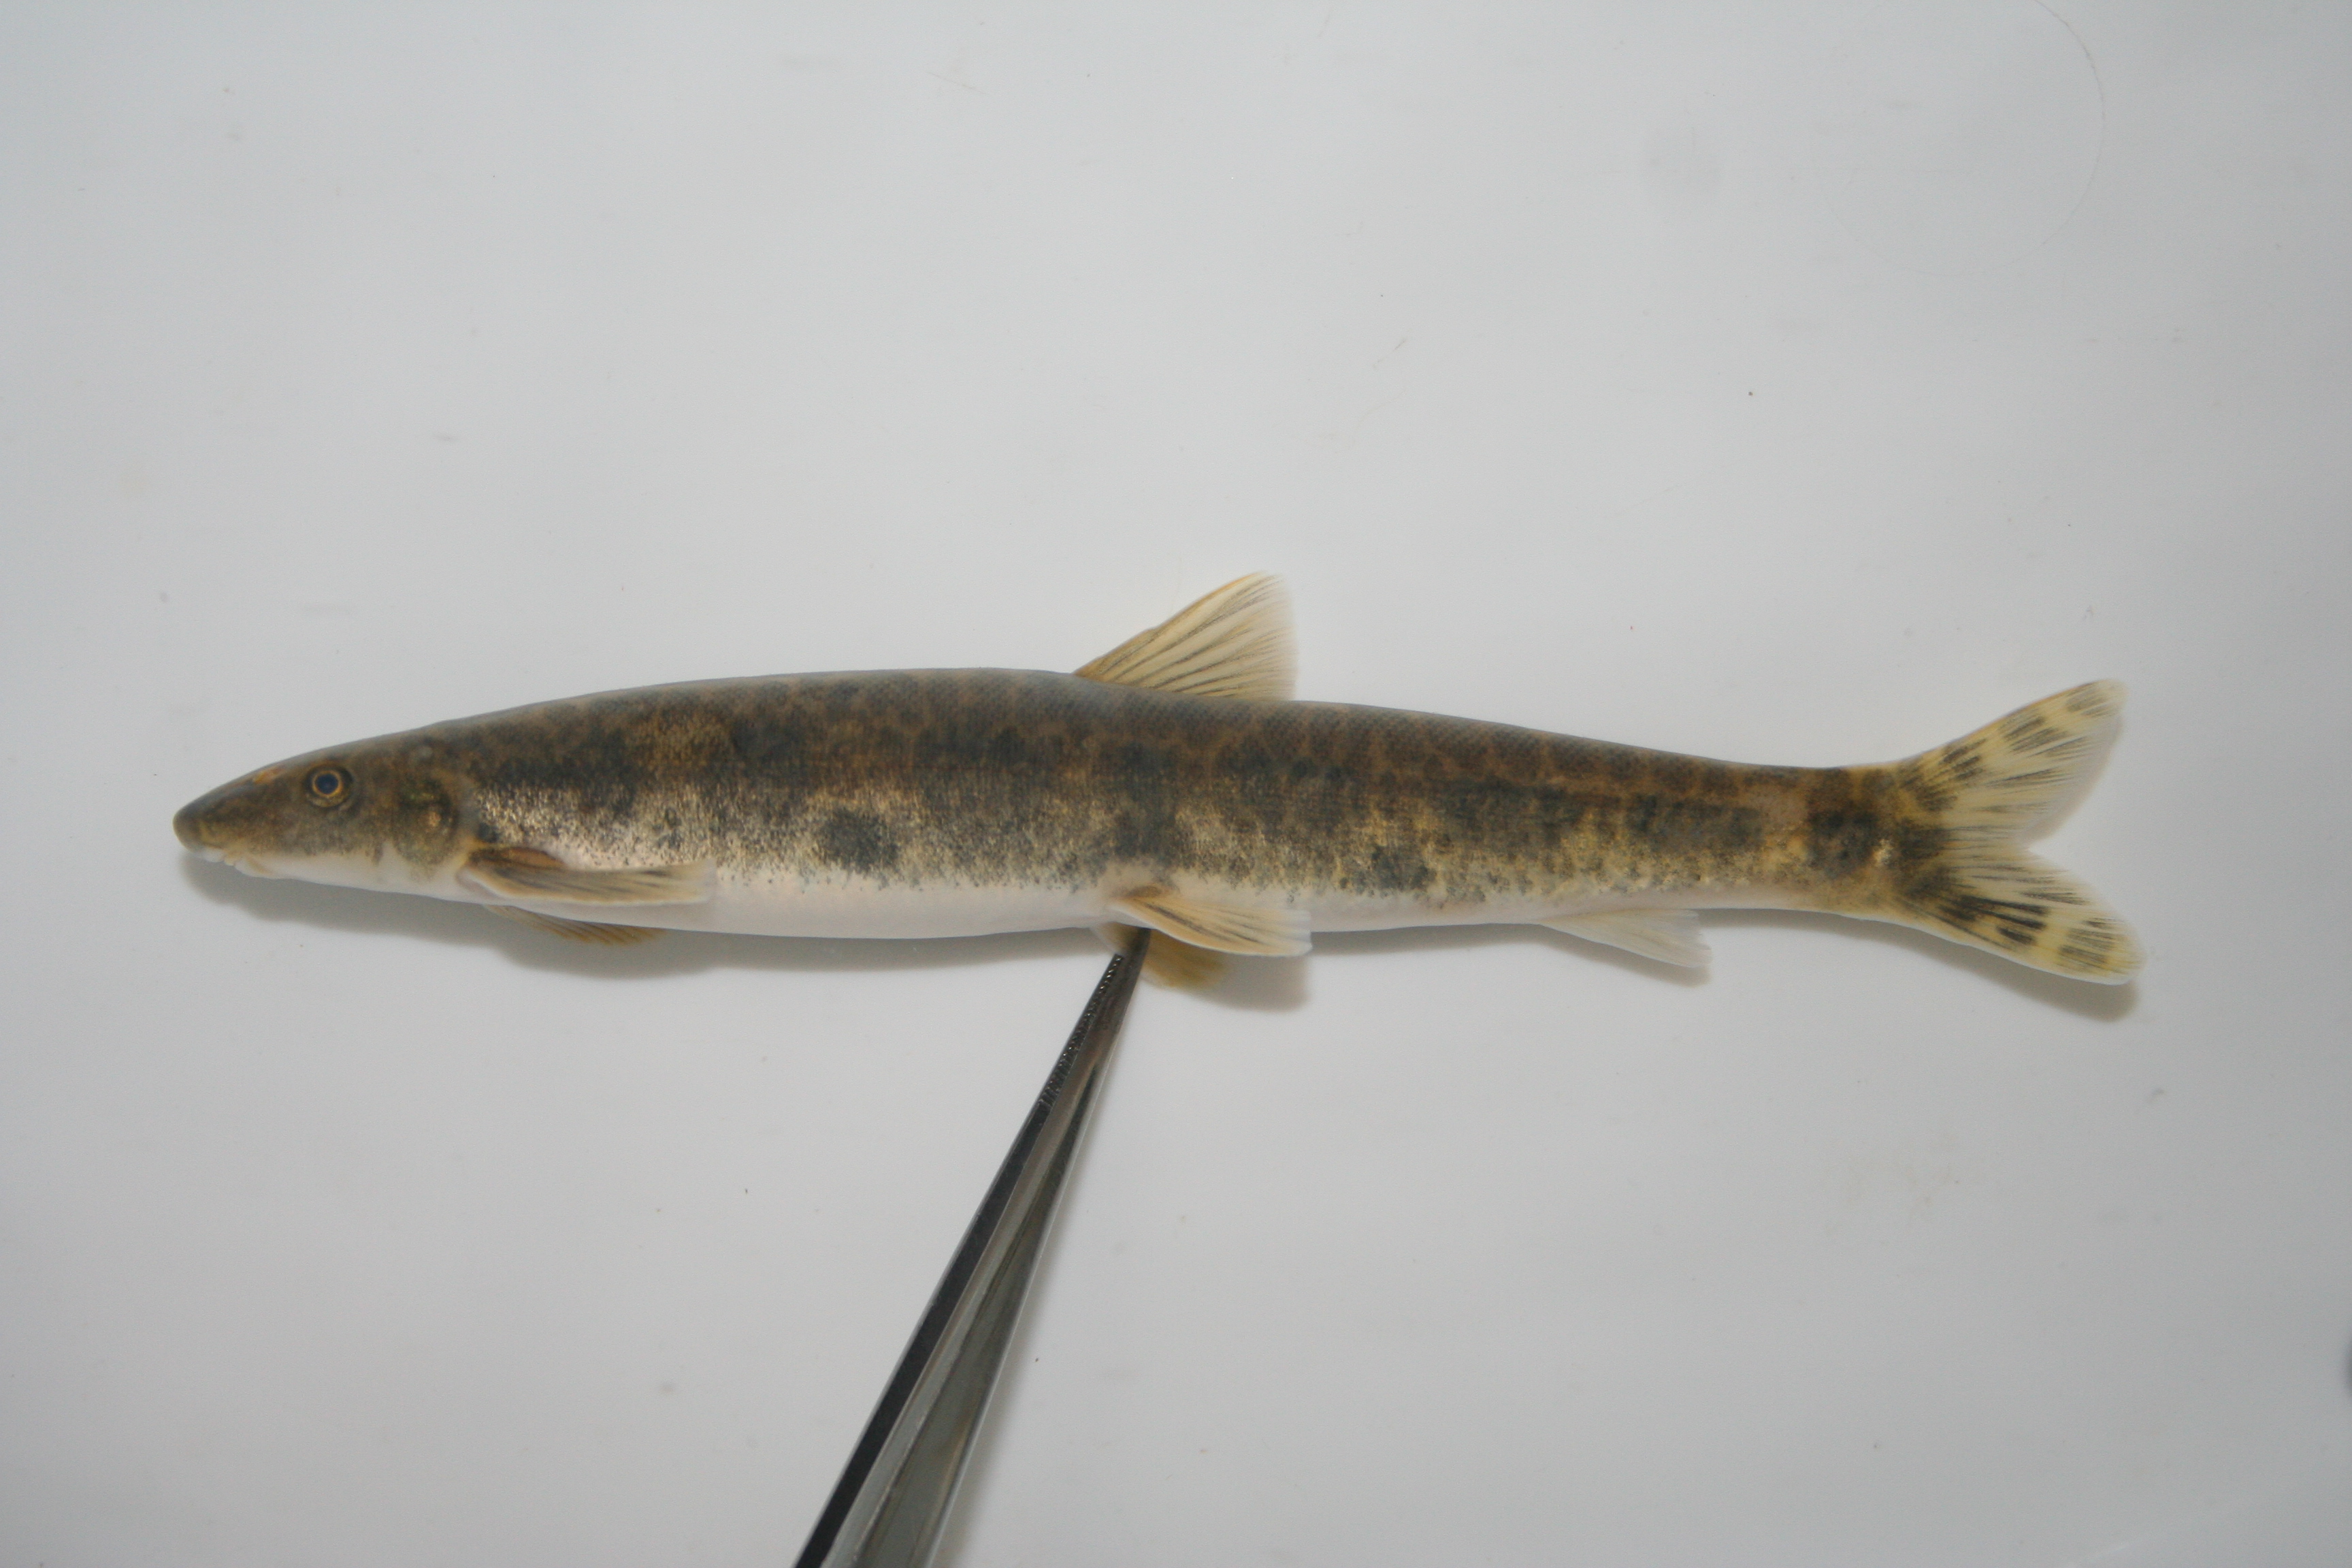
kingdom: Animalia
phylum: Chordata
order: Gonorynchiformes
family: Kneriidae
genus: Parakneria
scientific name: Parakneria marmorata
